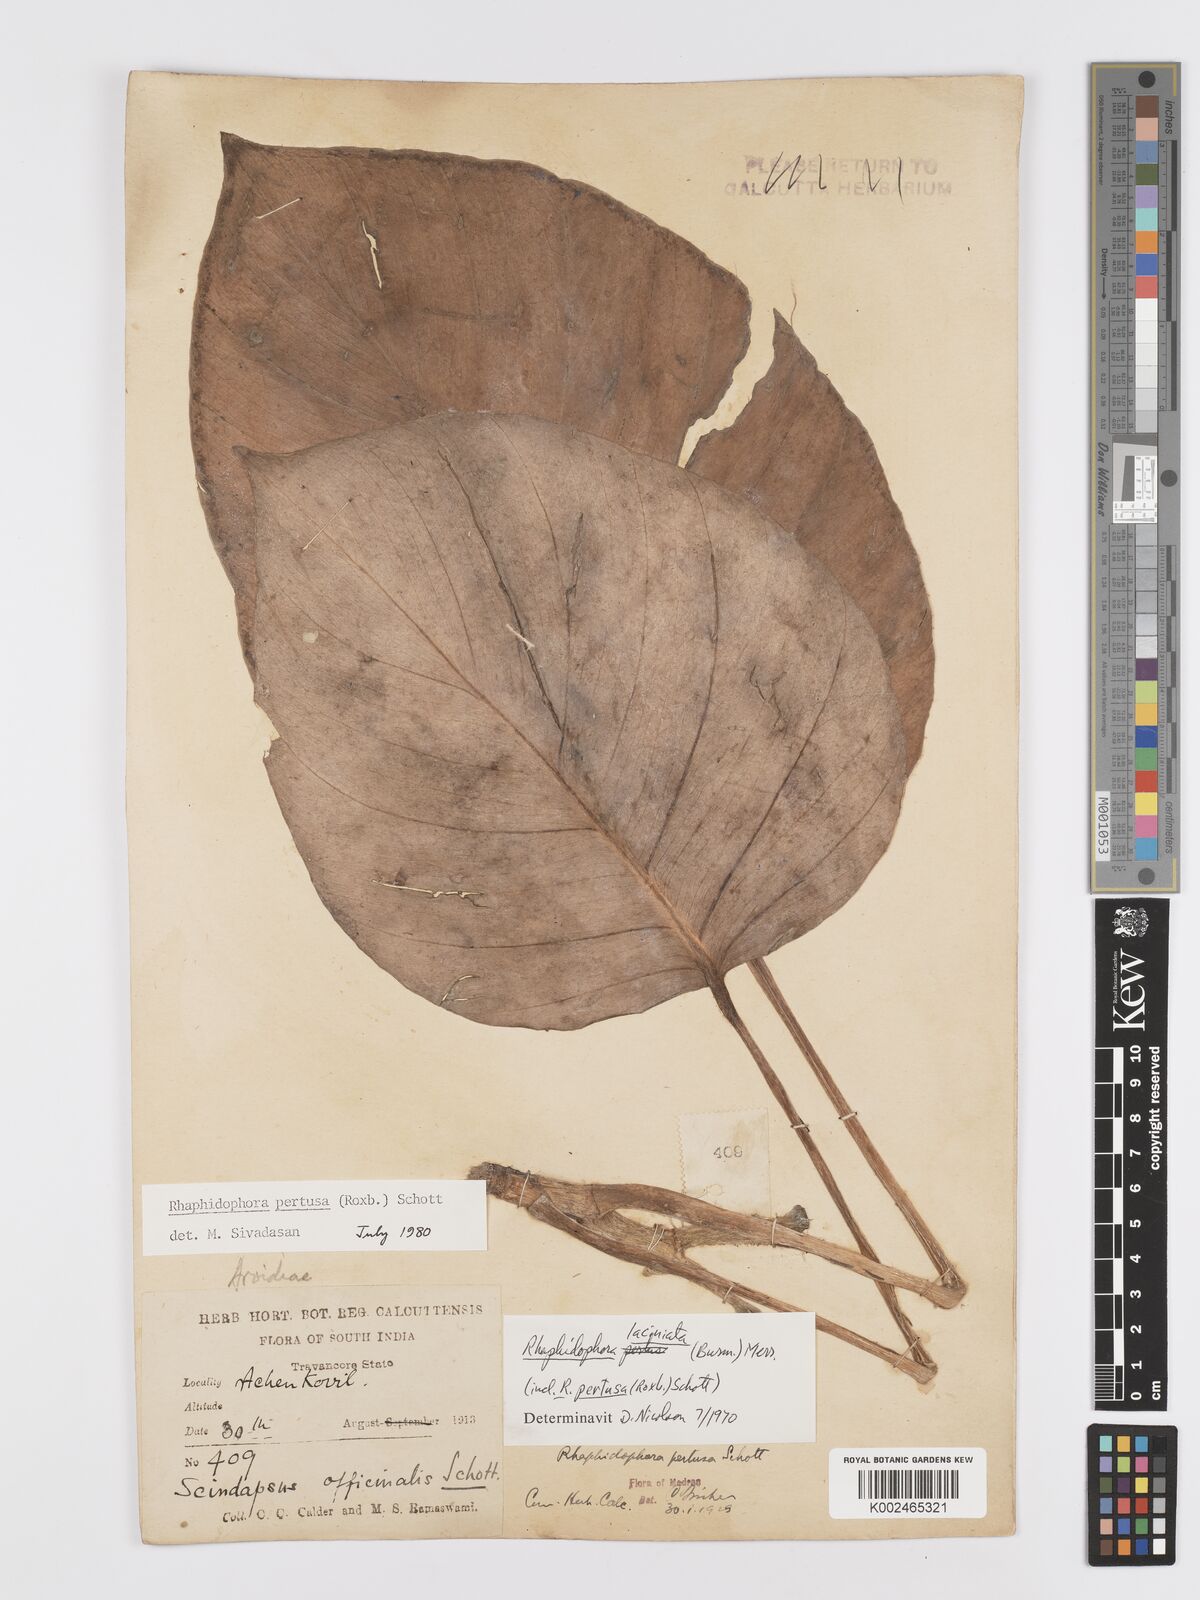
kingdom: Plantae
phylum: Tracheophyta
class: Liliopsida
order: Alismatales
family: Araceae
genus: Rhaphidophora
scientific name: Rhaphidophora pertusa
